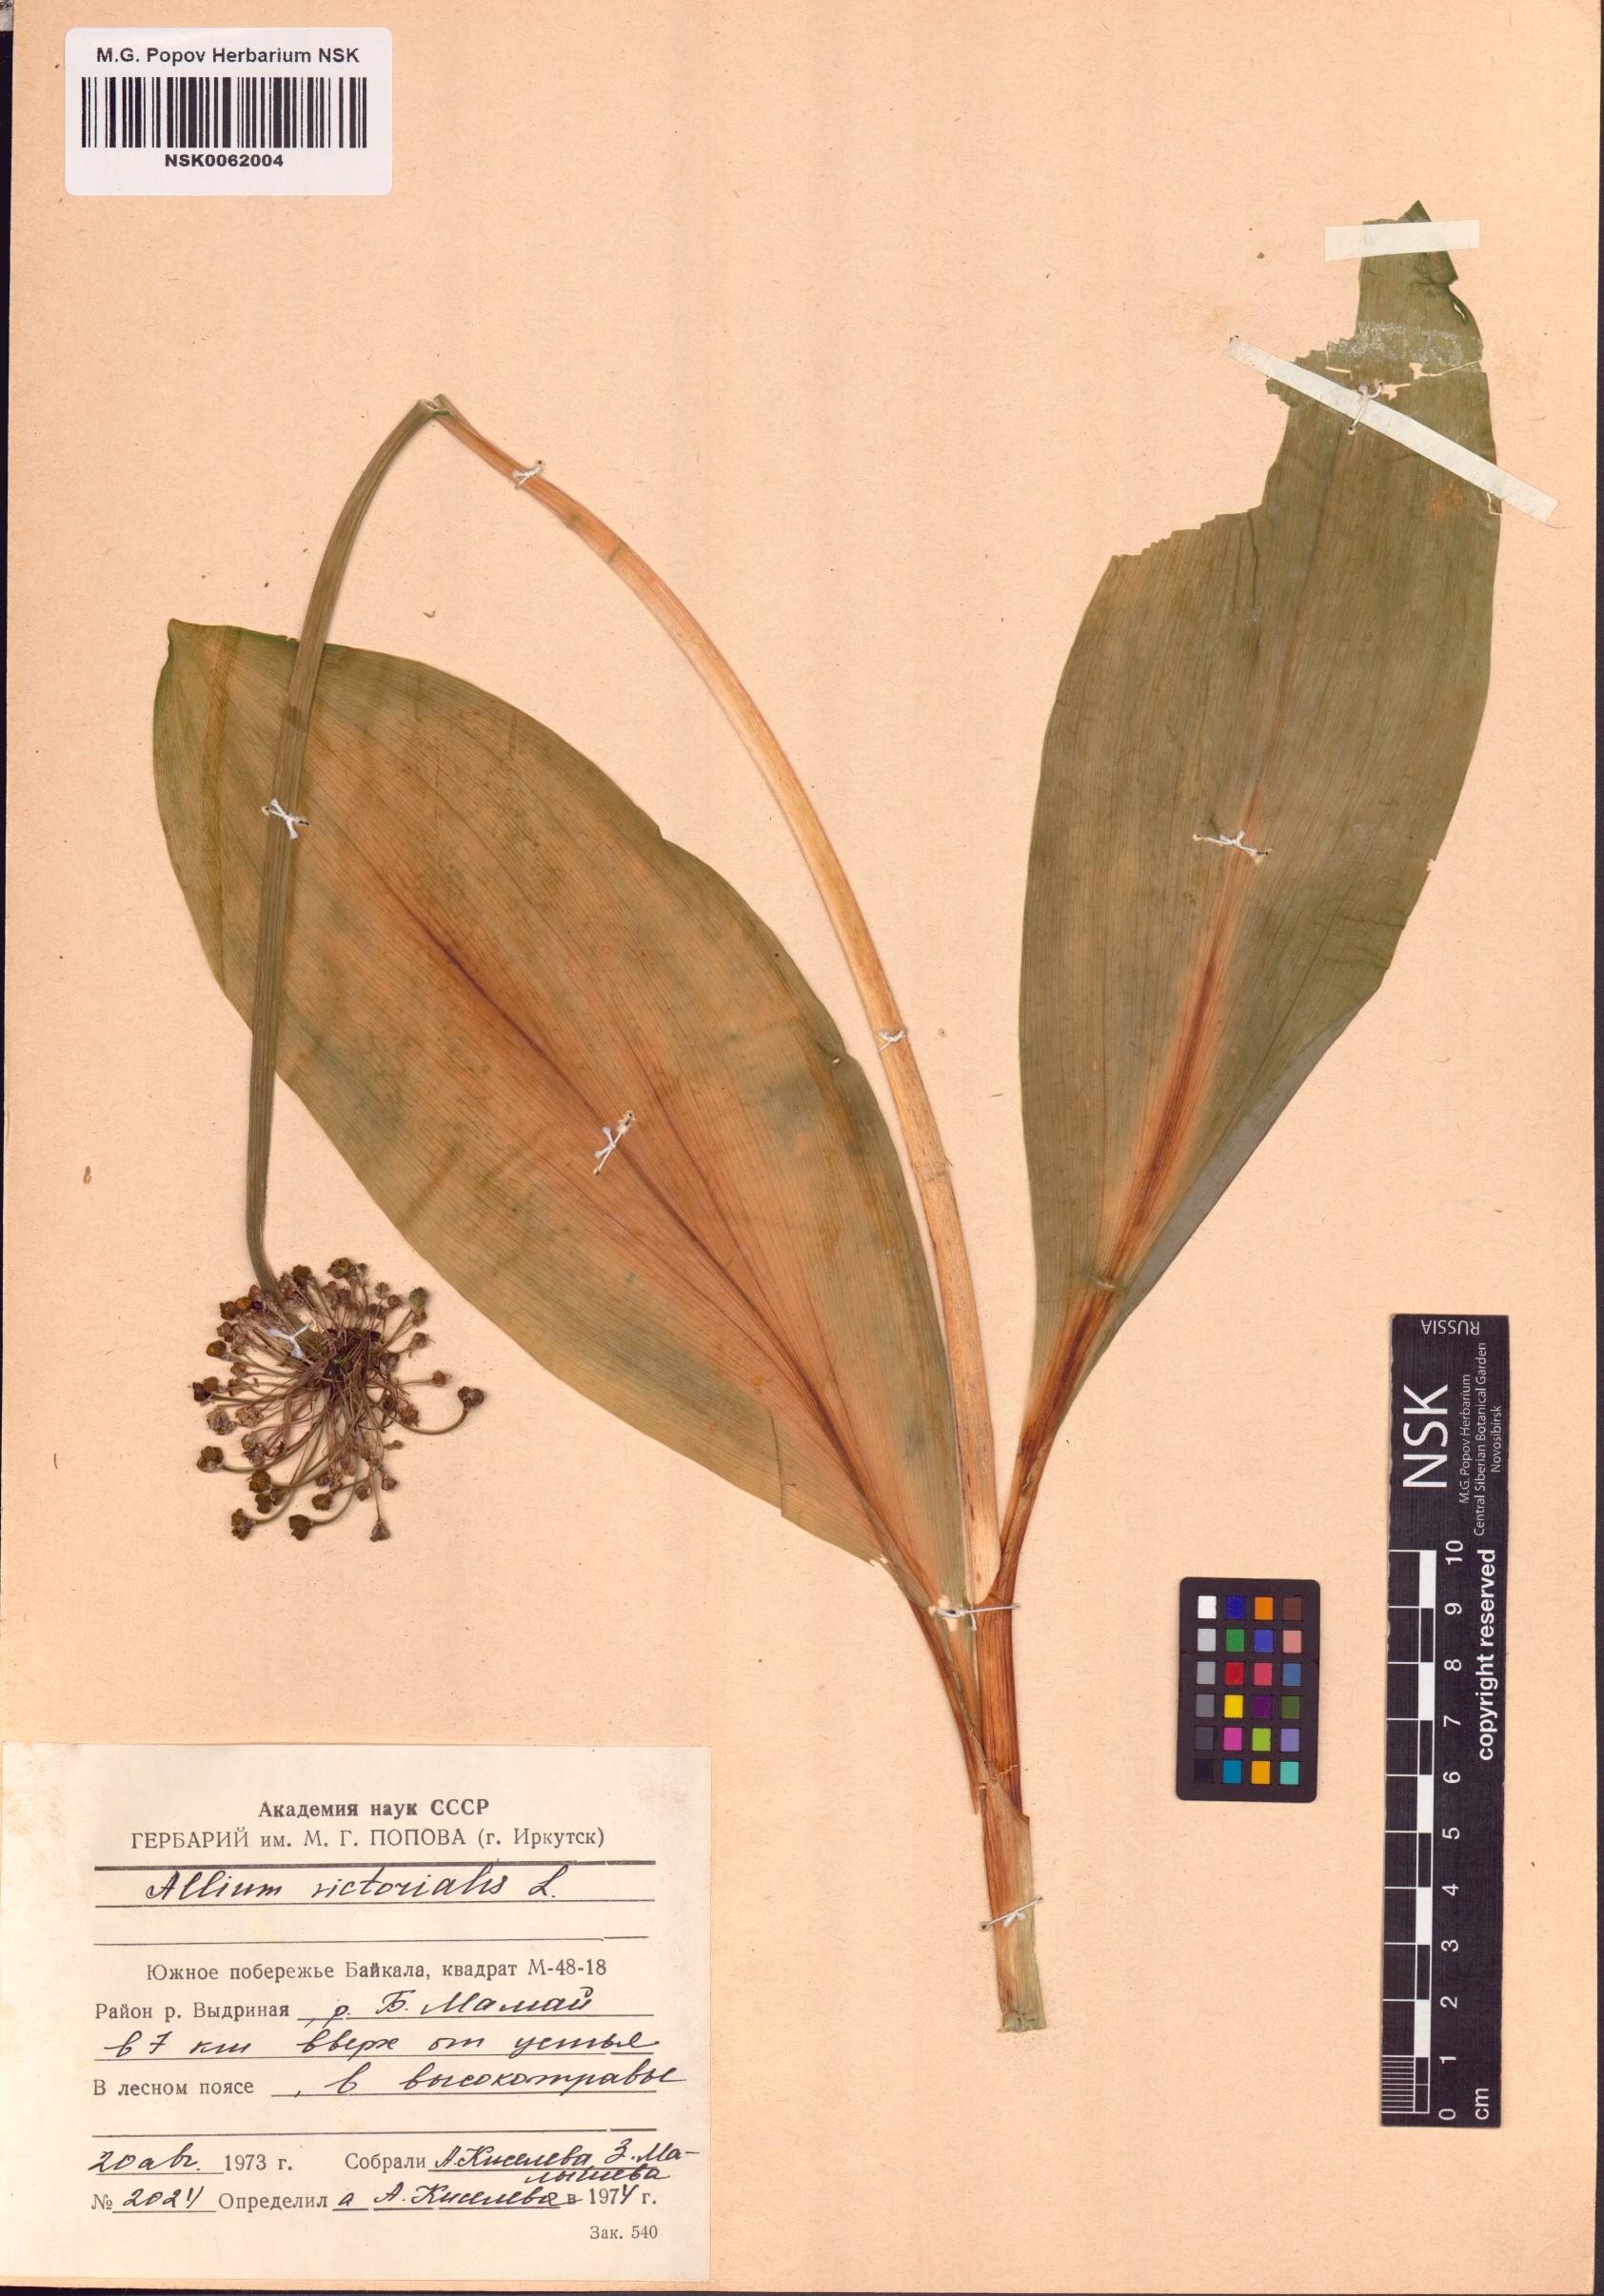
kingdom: Plantae
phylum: Tracheophyta
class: Liliopsida
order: Asparagales
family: Amaryllidaceae
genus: Allium
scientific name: Allium victorialis
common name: Alpine leek
